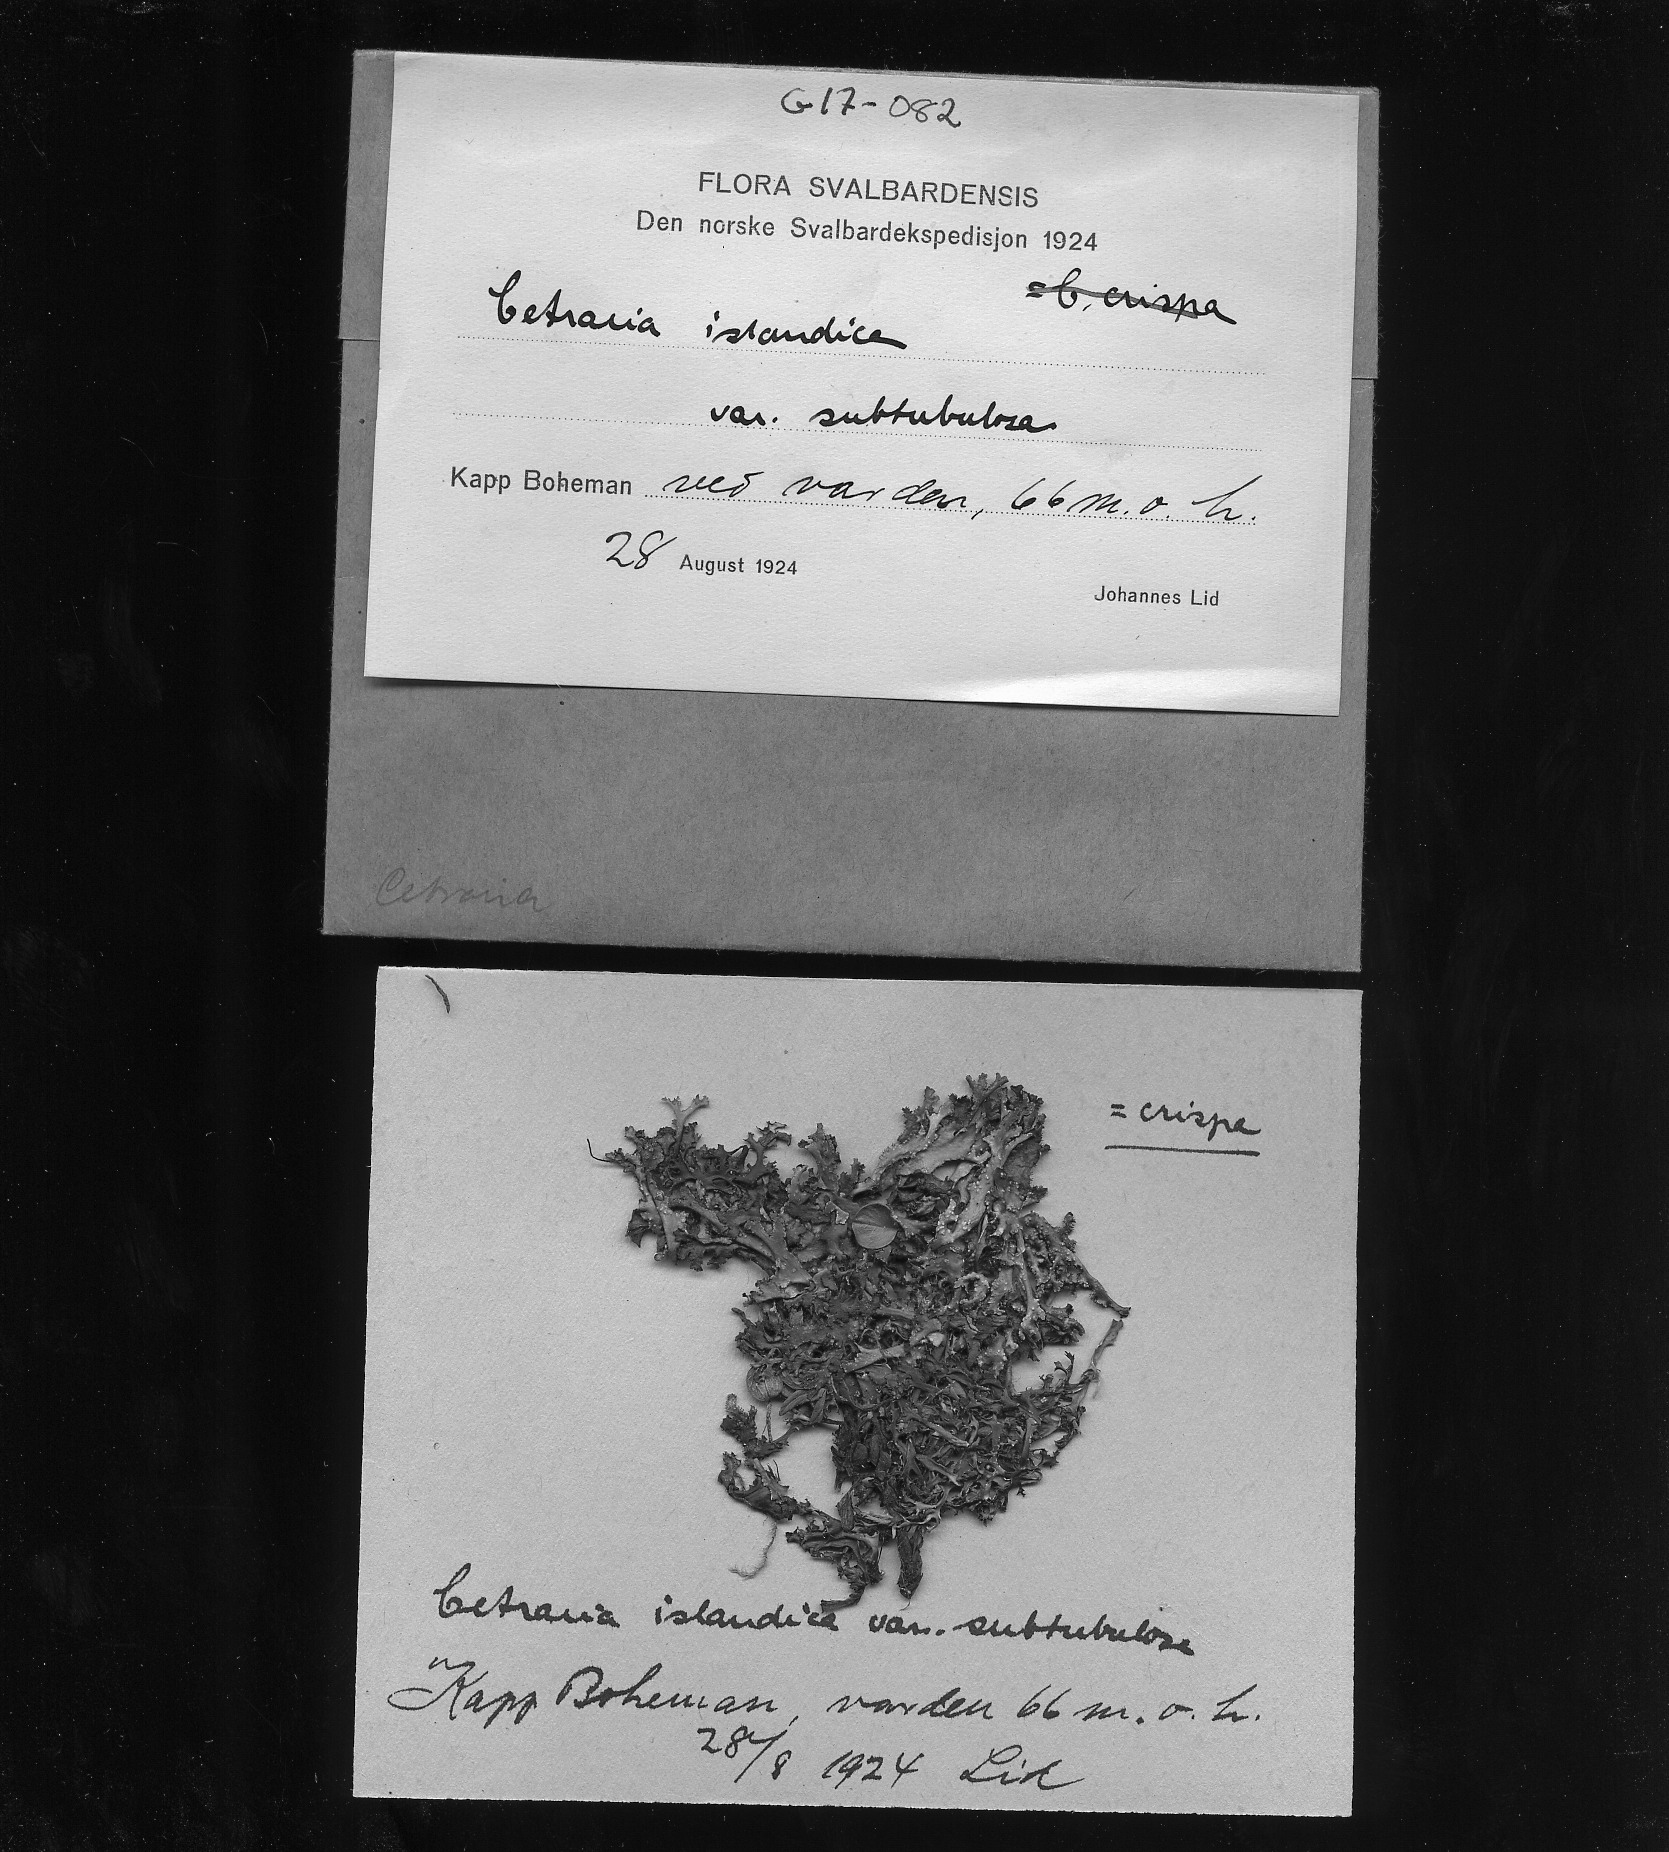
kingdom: Fungi
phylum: Ascomycota
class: Lecanoromycetes
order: Lecanorales
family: Parmeliaceae
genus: Cetraria
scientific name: Cetraria ericetorum
